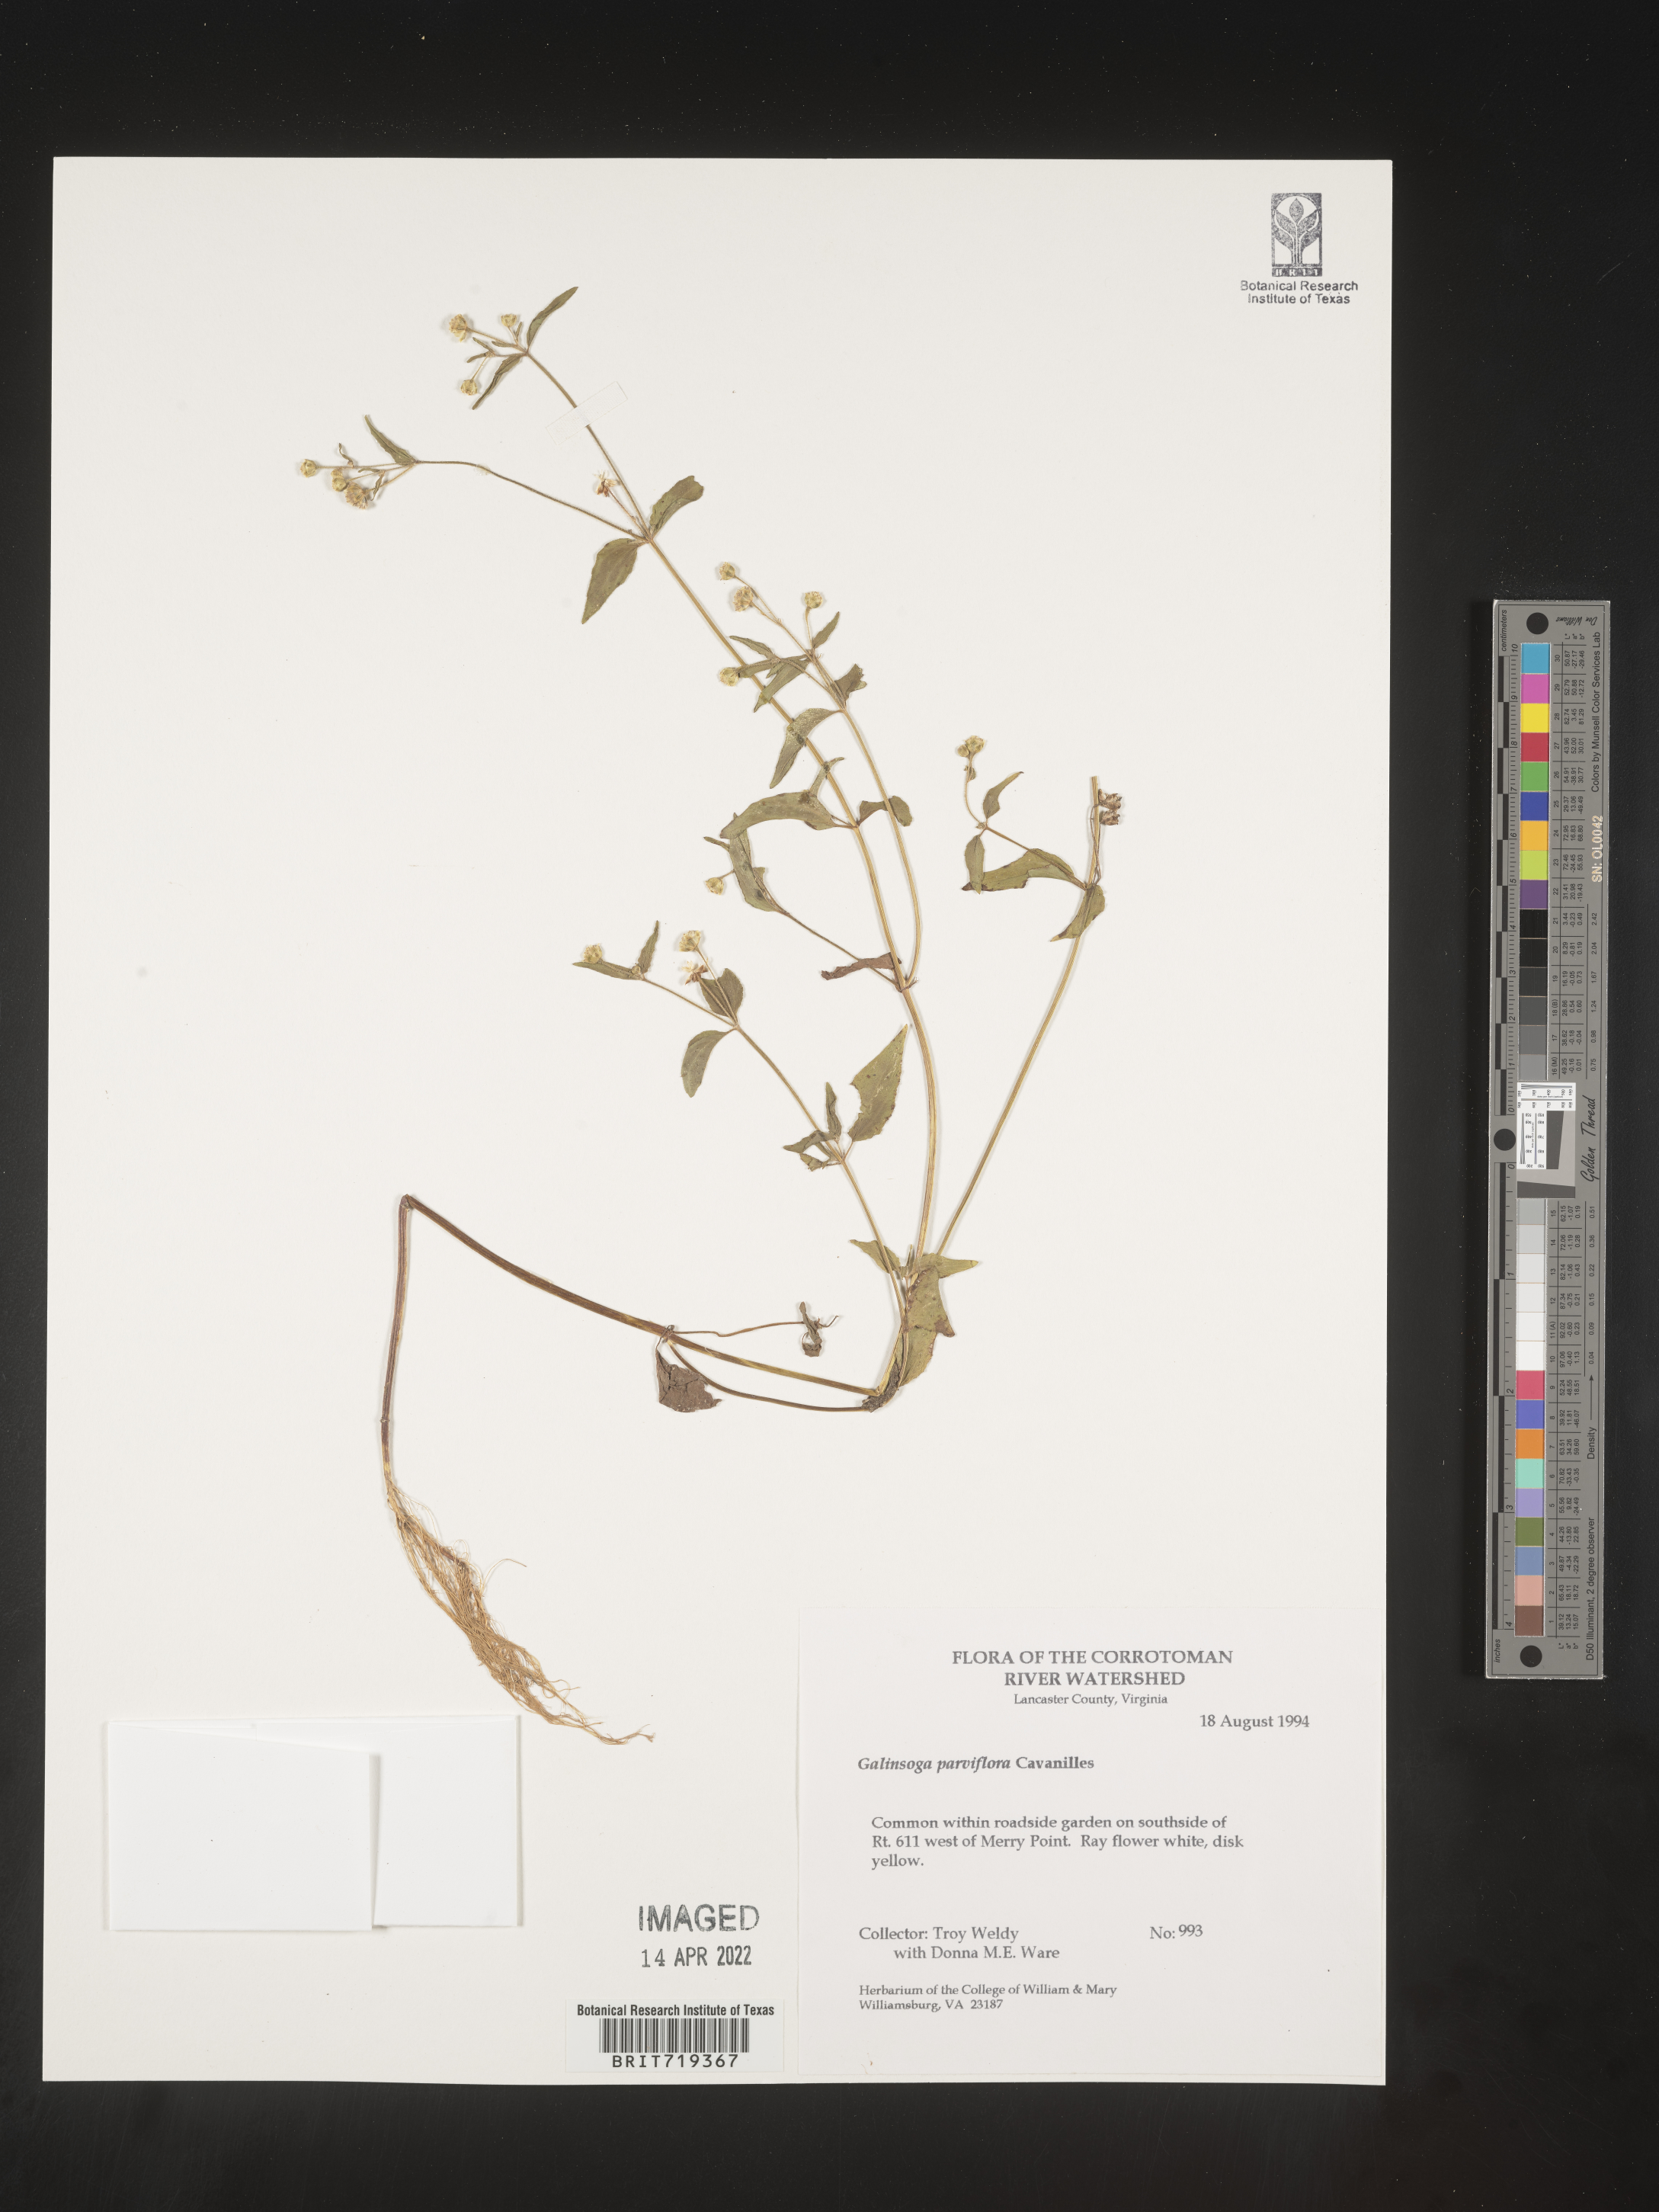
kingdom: Plantae
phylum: Tracheophyta
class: Magnoliopsida
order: Asterales
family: Asteraceae
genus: Galinsoga
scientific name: Galinsoga quadriradiata
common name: Shaggy soldier
